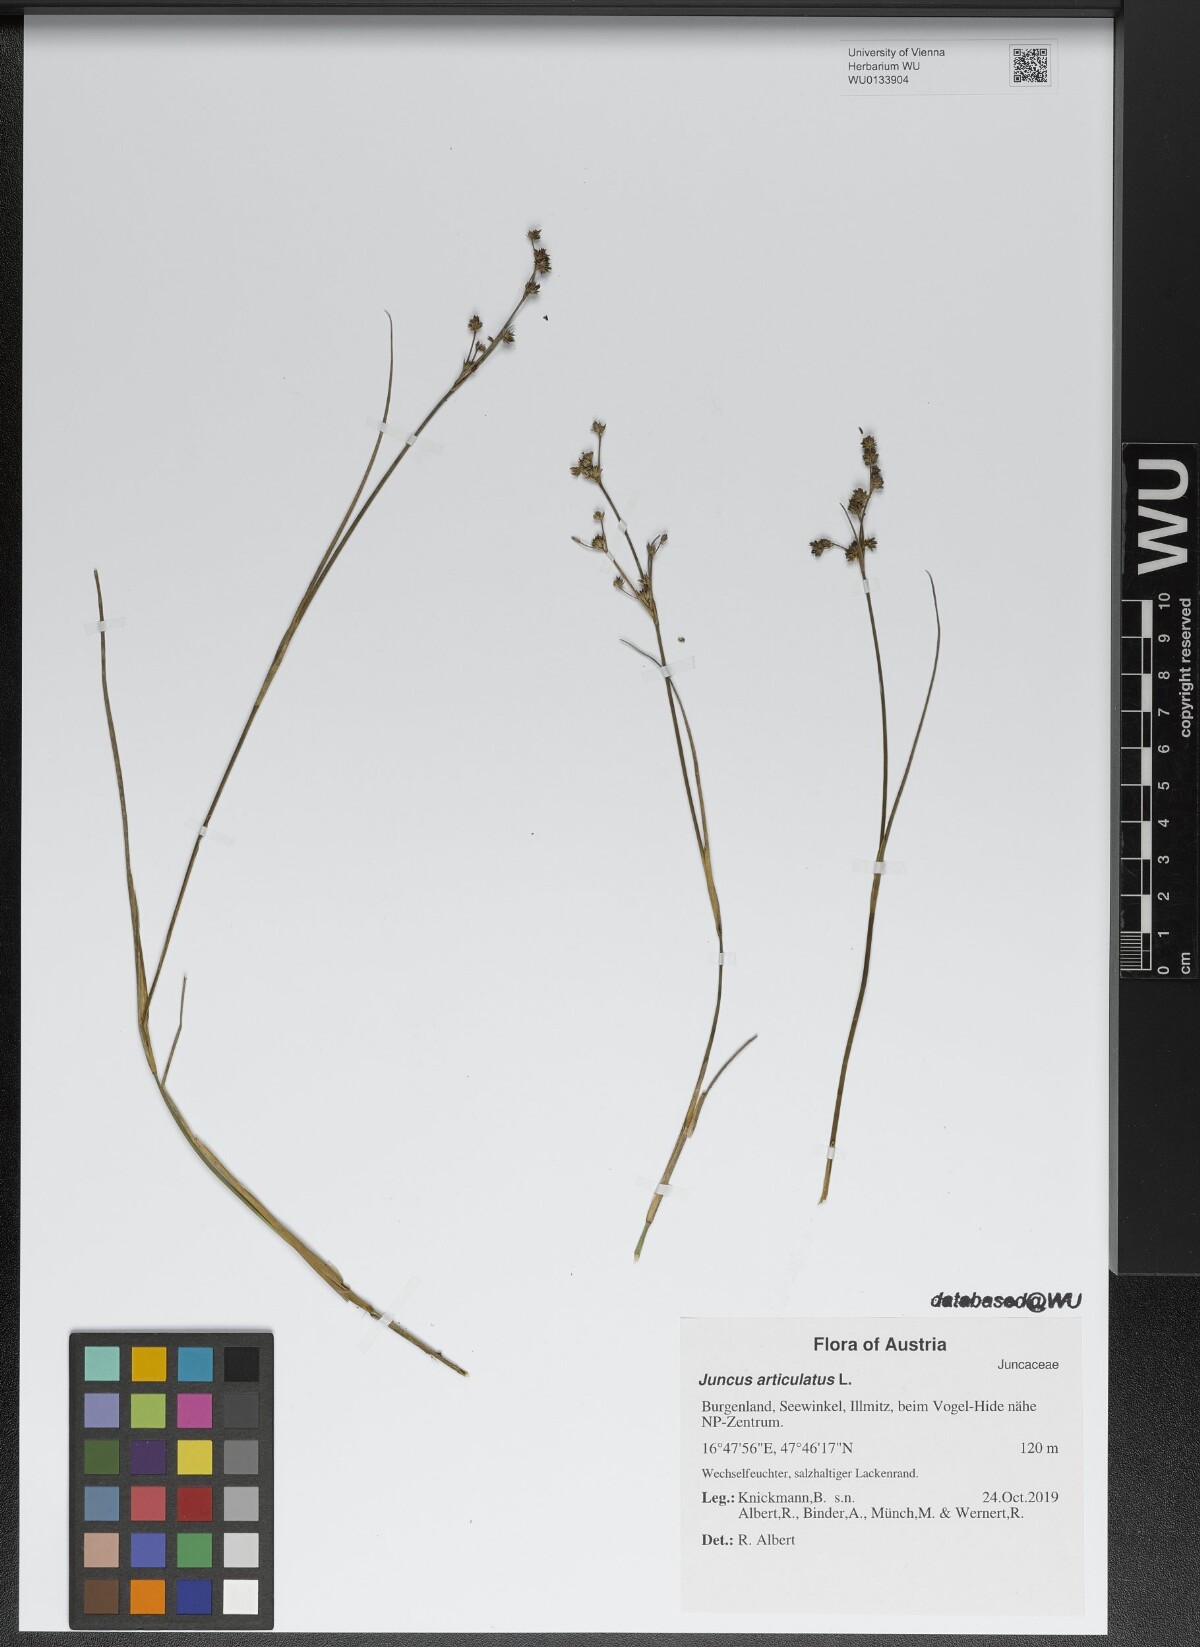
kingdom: Plantae
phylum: Tracheophyta
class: Liliopsida
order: Poales
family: Juncaceae
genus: Juncus
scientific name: Juncus articulatus
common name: Jointed rush
